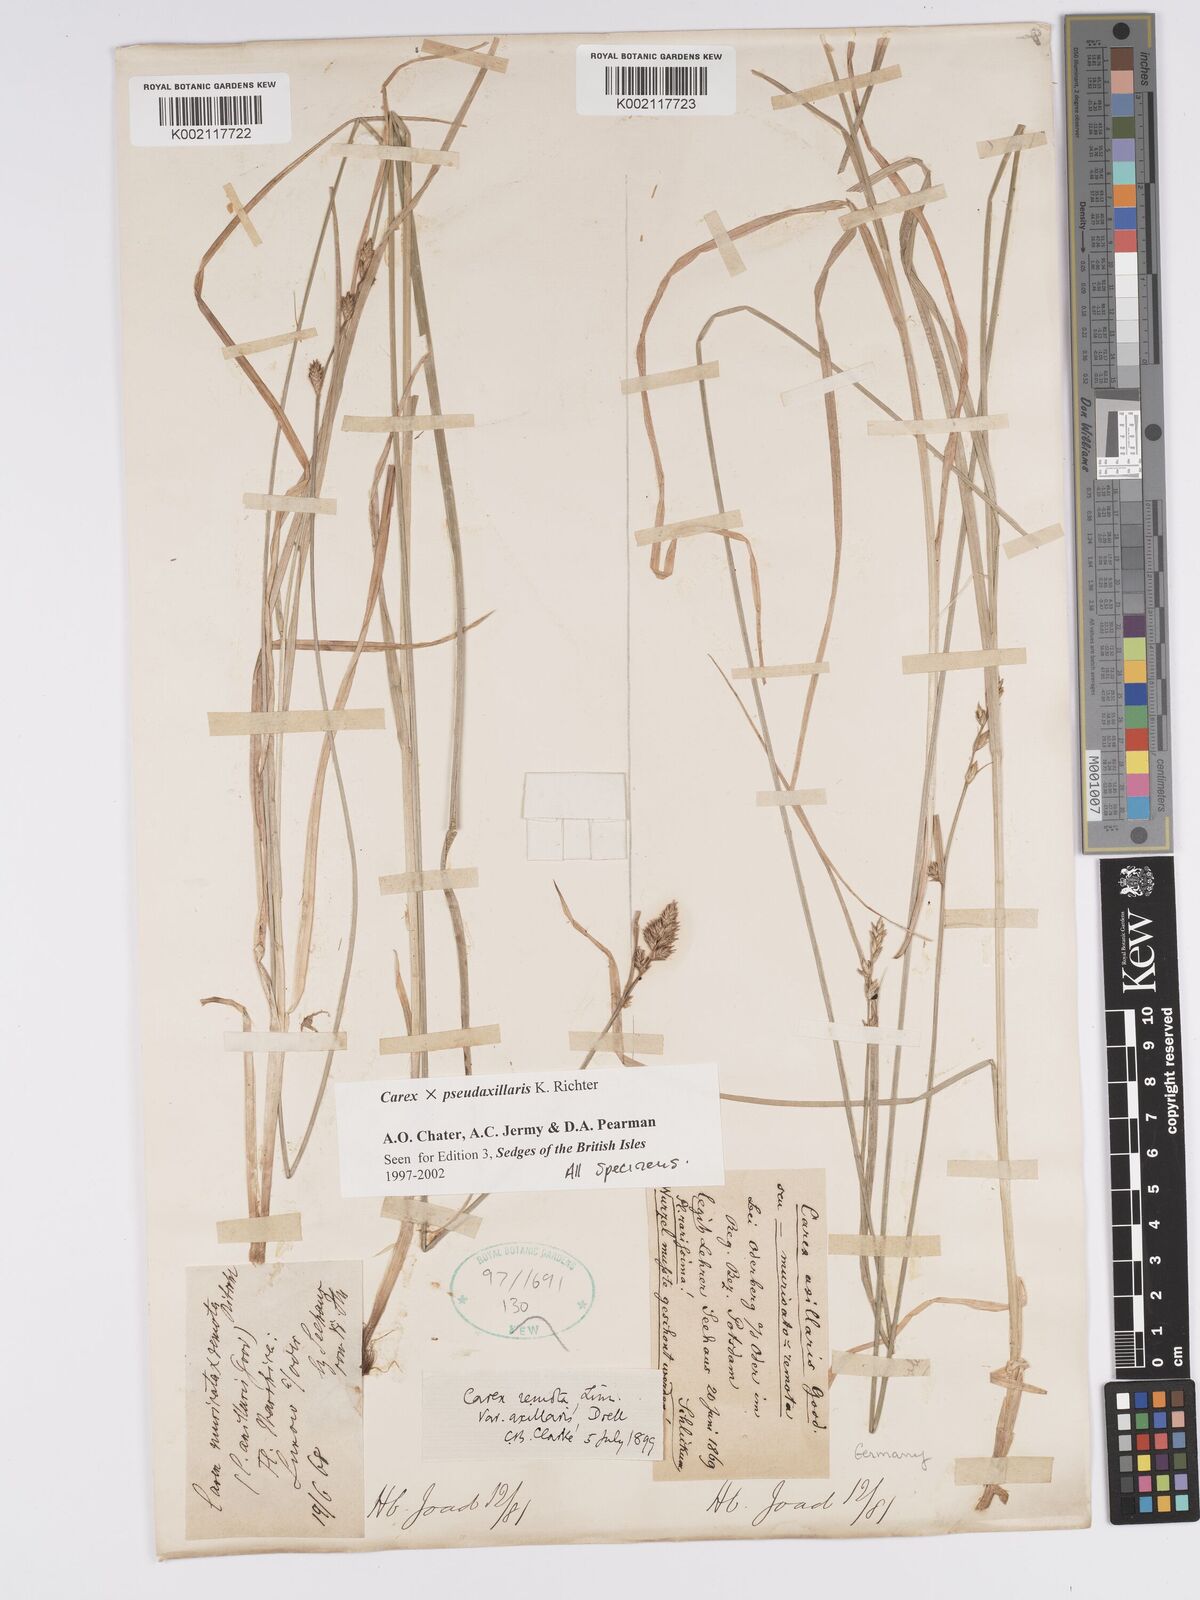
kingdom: Plantae
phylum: Tracheophyta
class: Liliopsida
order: Poales
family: Cyperaceae
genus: Carex
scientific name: Carex pseudoaxillaris
